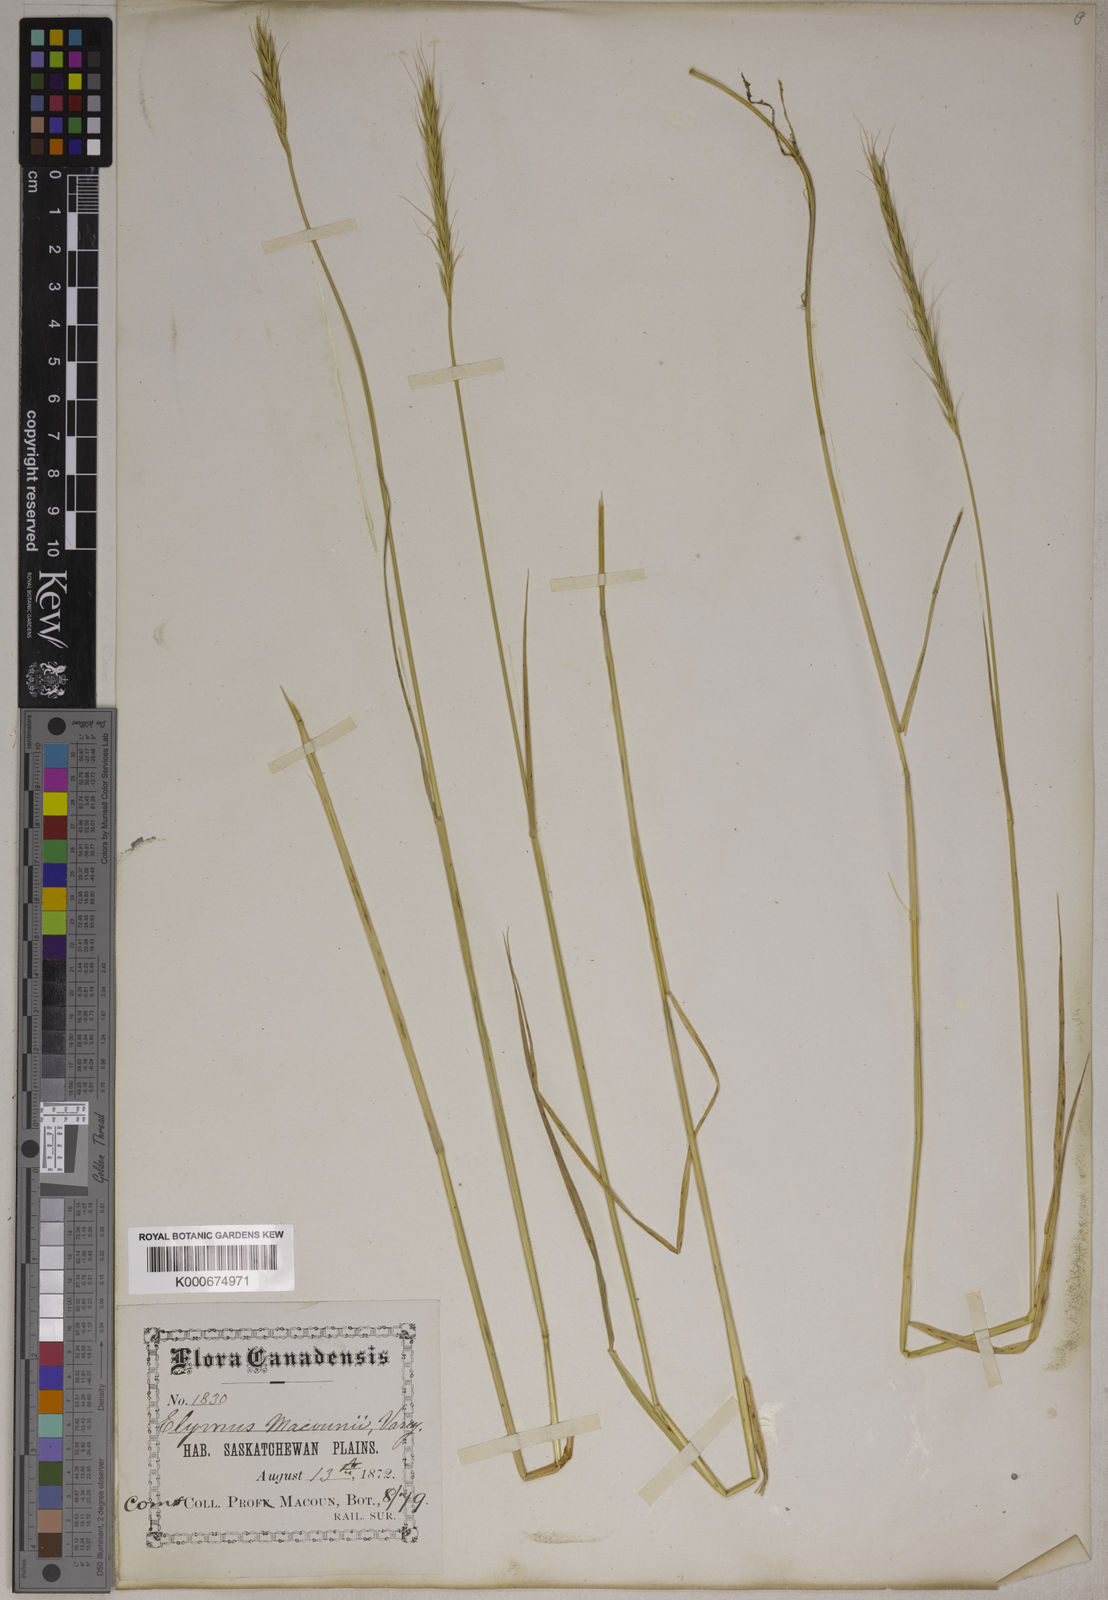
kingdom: Plantae
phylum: Tracheophyta
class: Liliopsida
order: Poales
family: Poaceae
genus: Elyhordeum
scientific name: Elyhordeum macounii
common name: Macoun's barley
